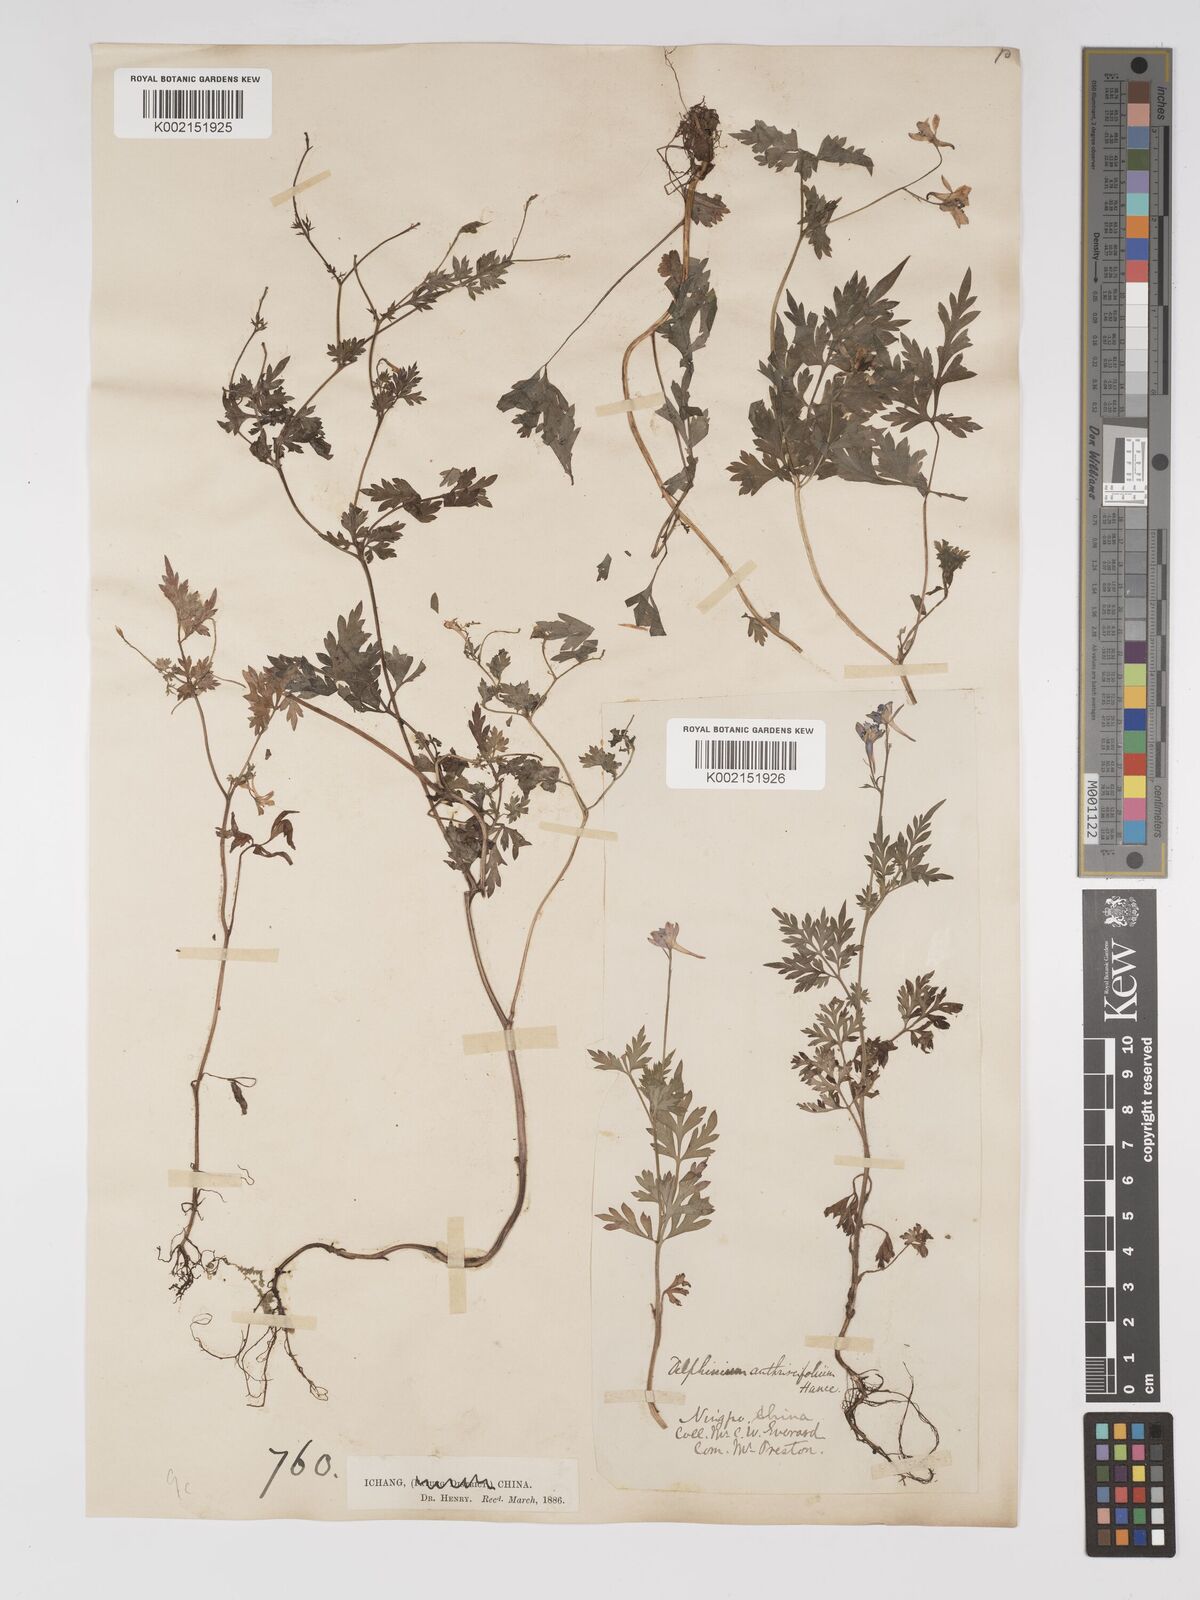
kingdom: Plantae
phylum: Tracheophyta
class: Magnoliopsida
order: Ranunculales
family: Ranunculaceae
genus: Delphinium
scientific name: Delphinium anthriscifolium
